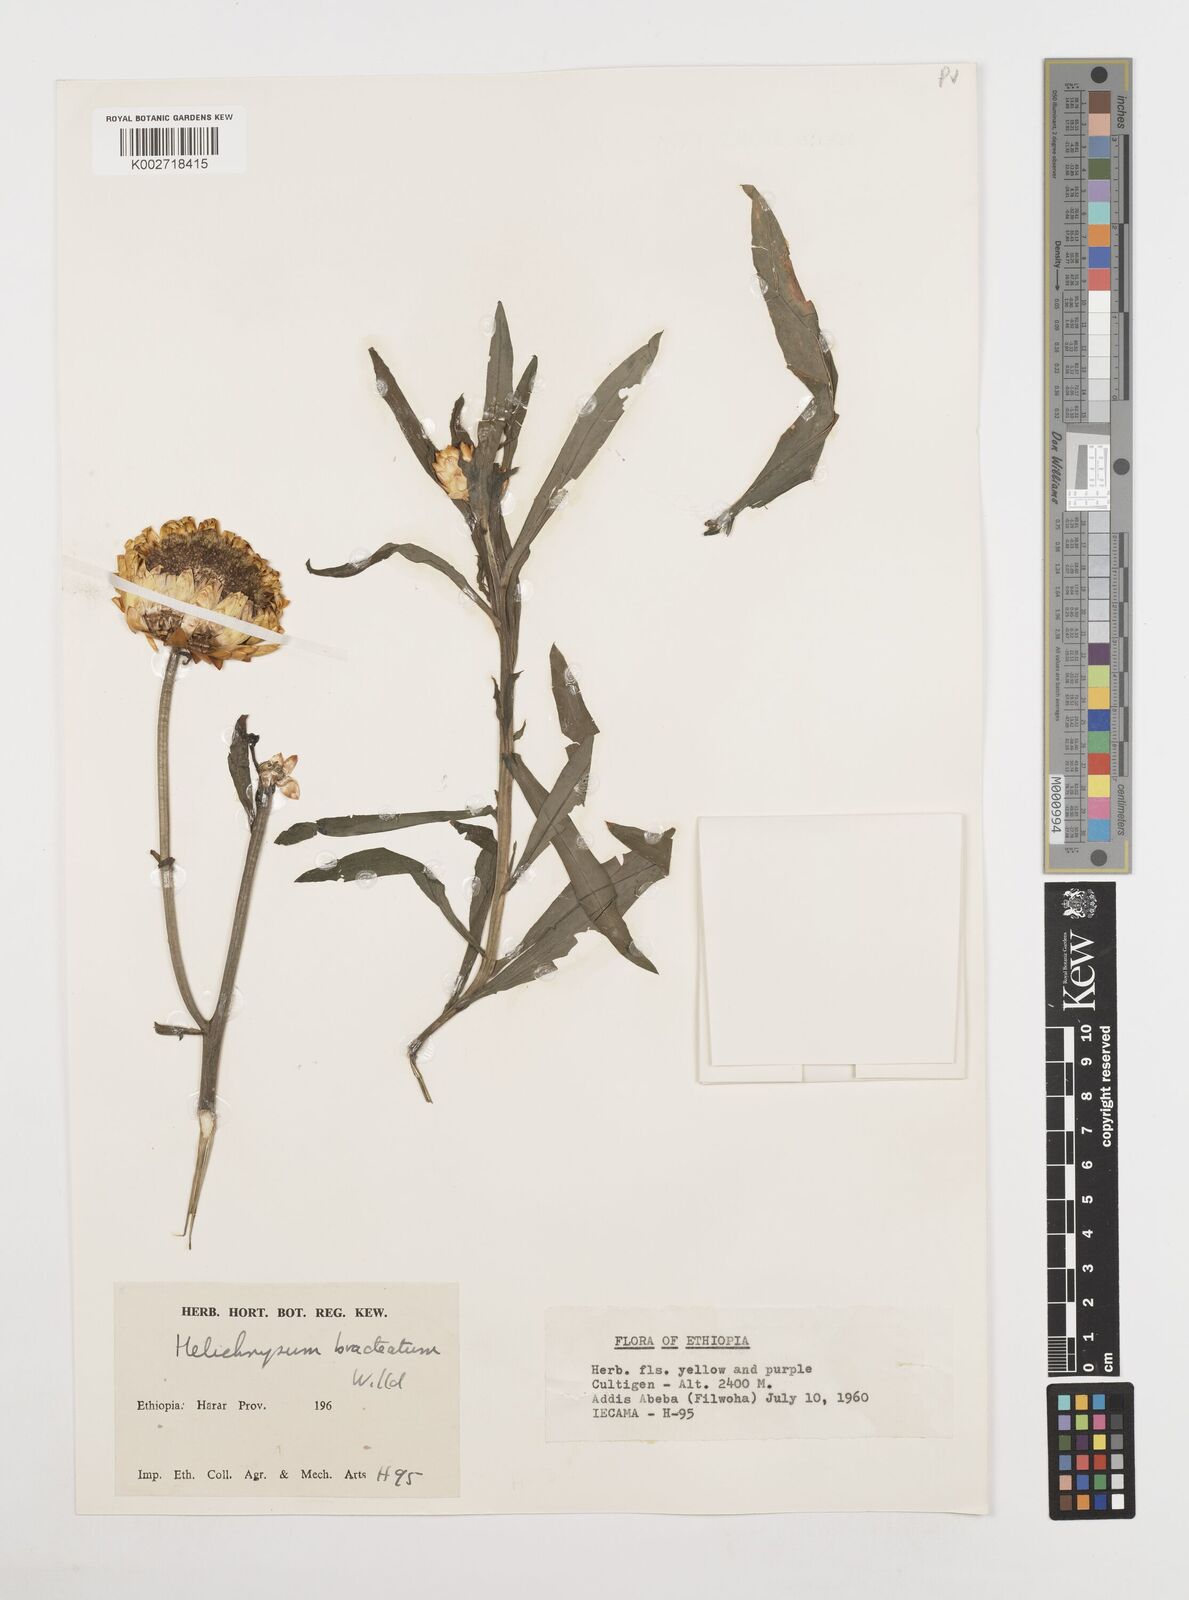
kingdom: Plantae
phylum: Tracheophyta
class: Magnoliopsida
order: Asterales
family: Asteraceae
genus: Xerochrysum
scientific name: Xerochrysum bracteatum
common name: Bracted strawflower
